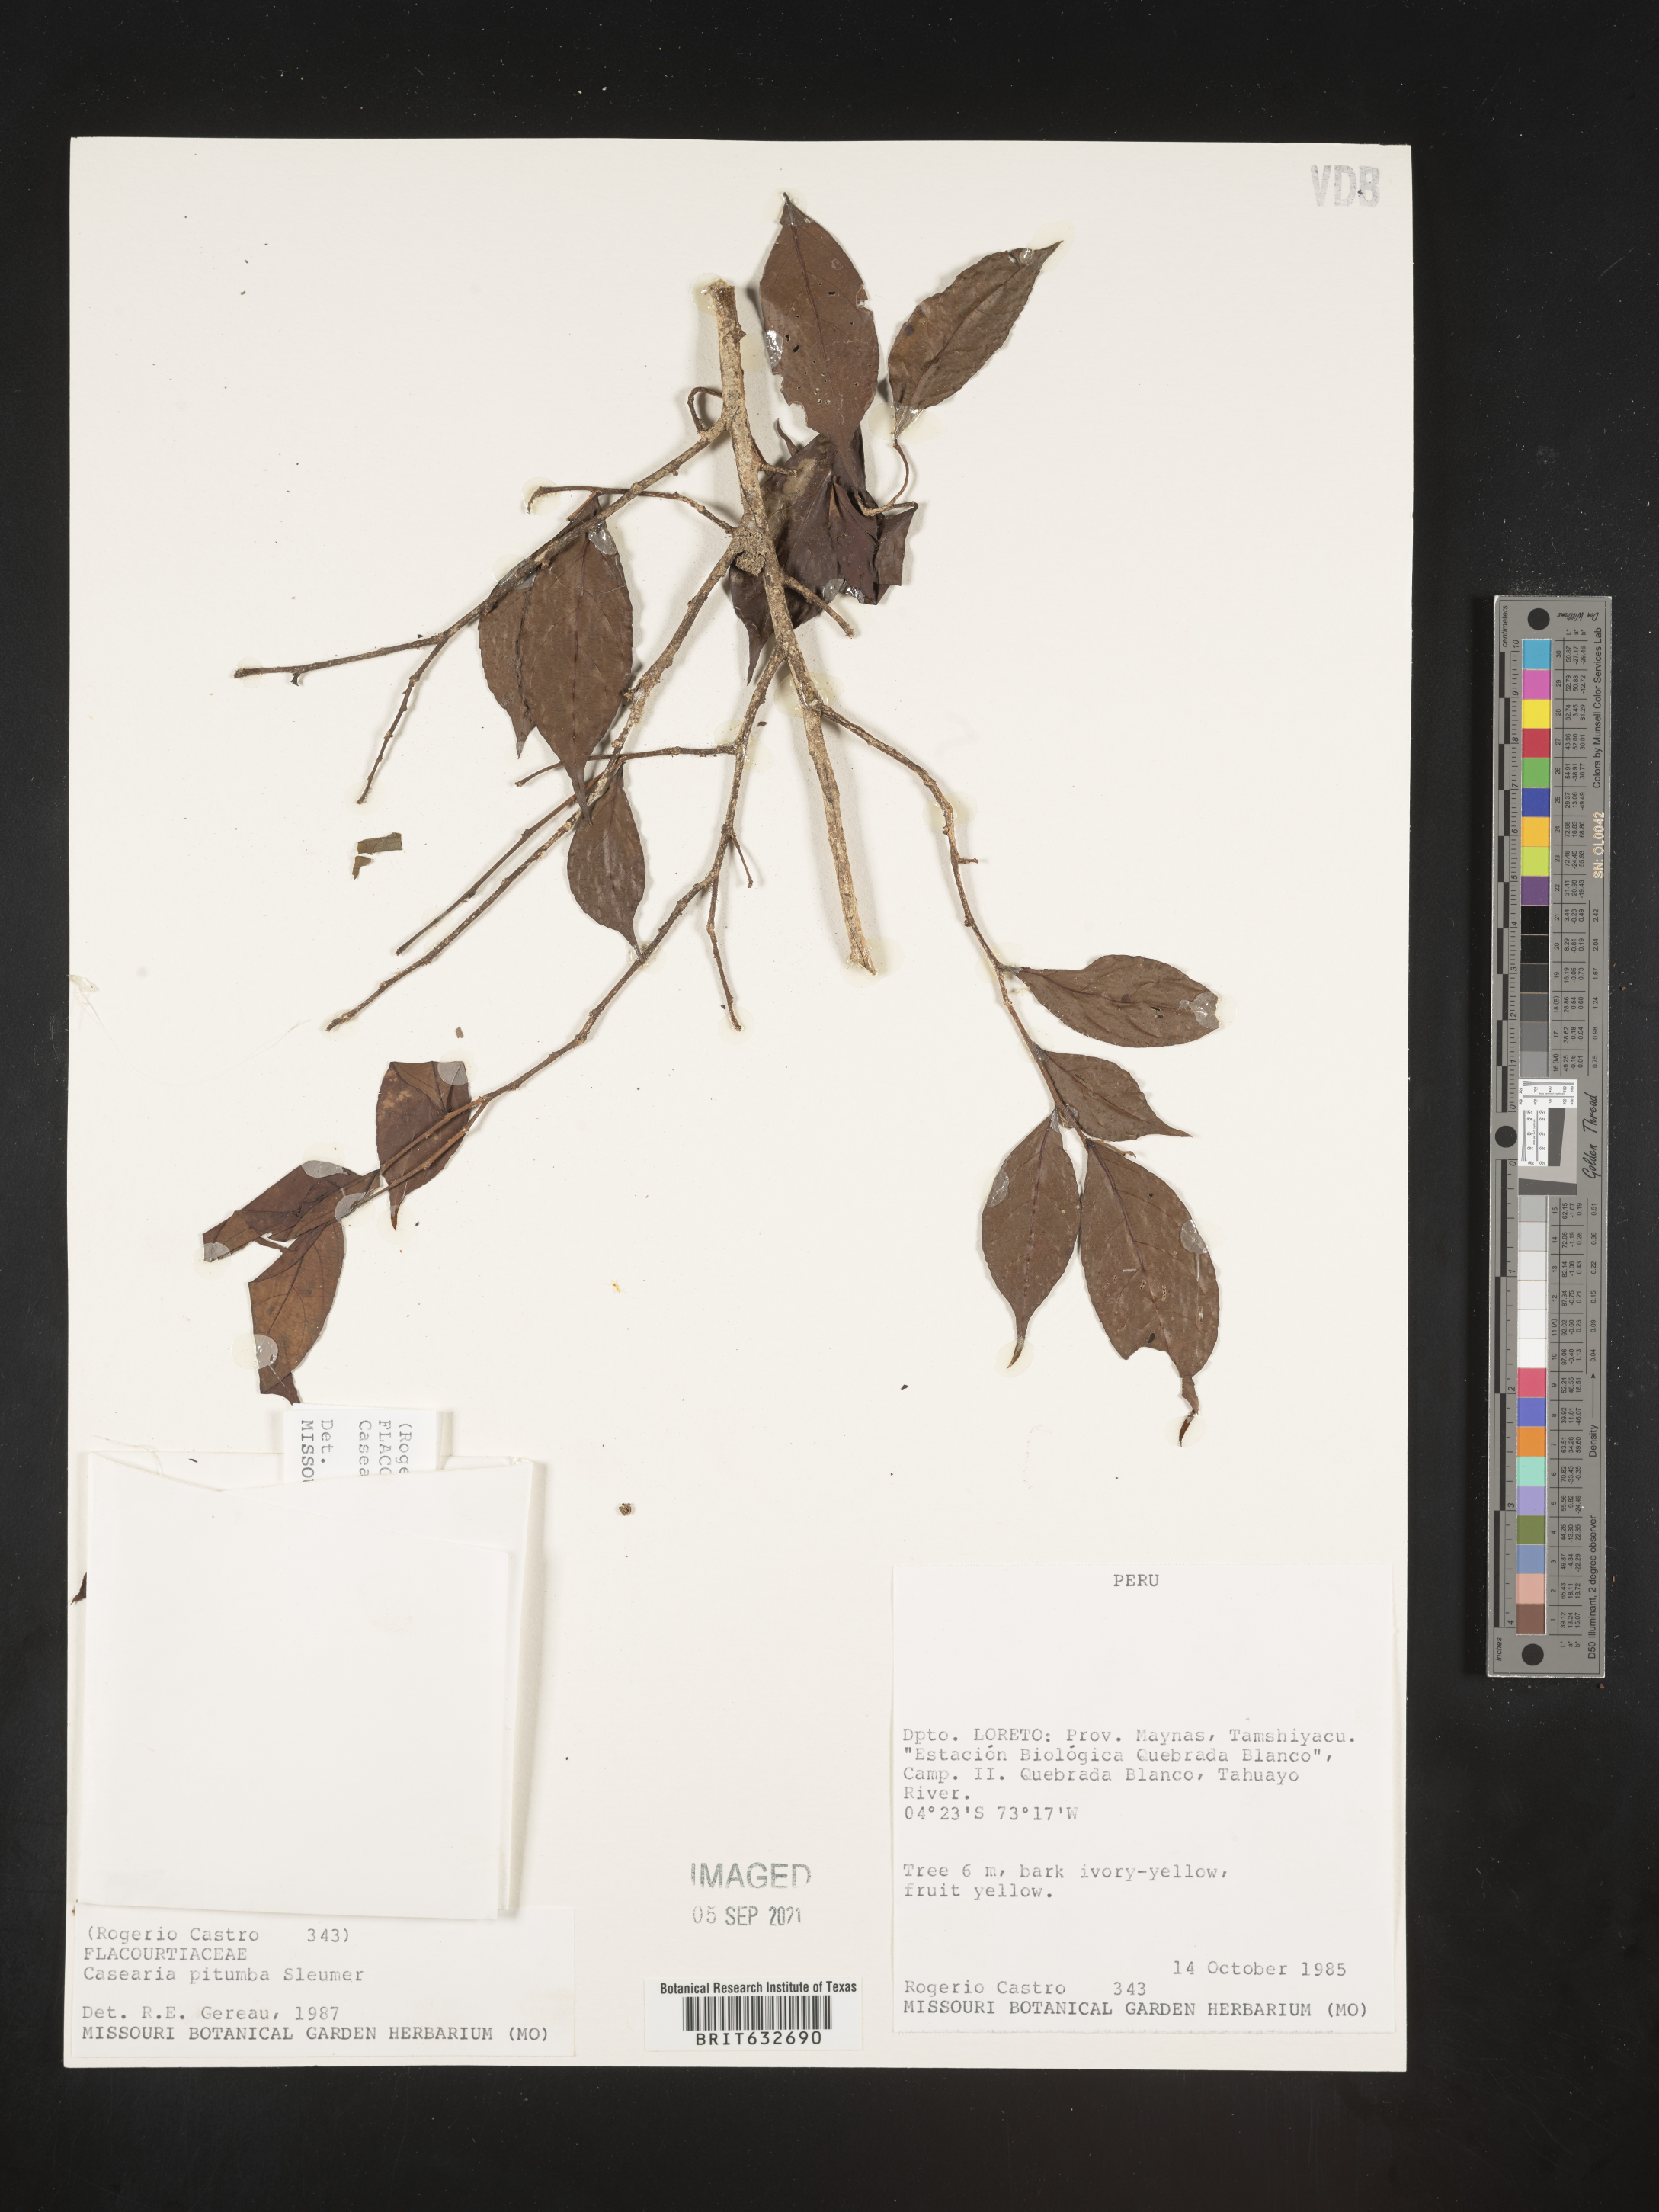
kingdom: Plantae
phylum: Tracheophyta
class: Magnoliopsida
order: Malpighiales
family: Salicaceae
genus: Casearia
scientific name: Casearia
